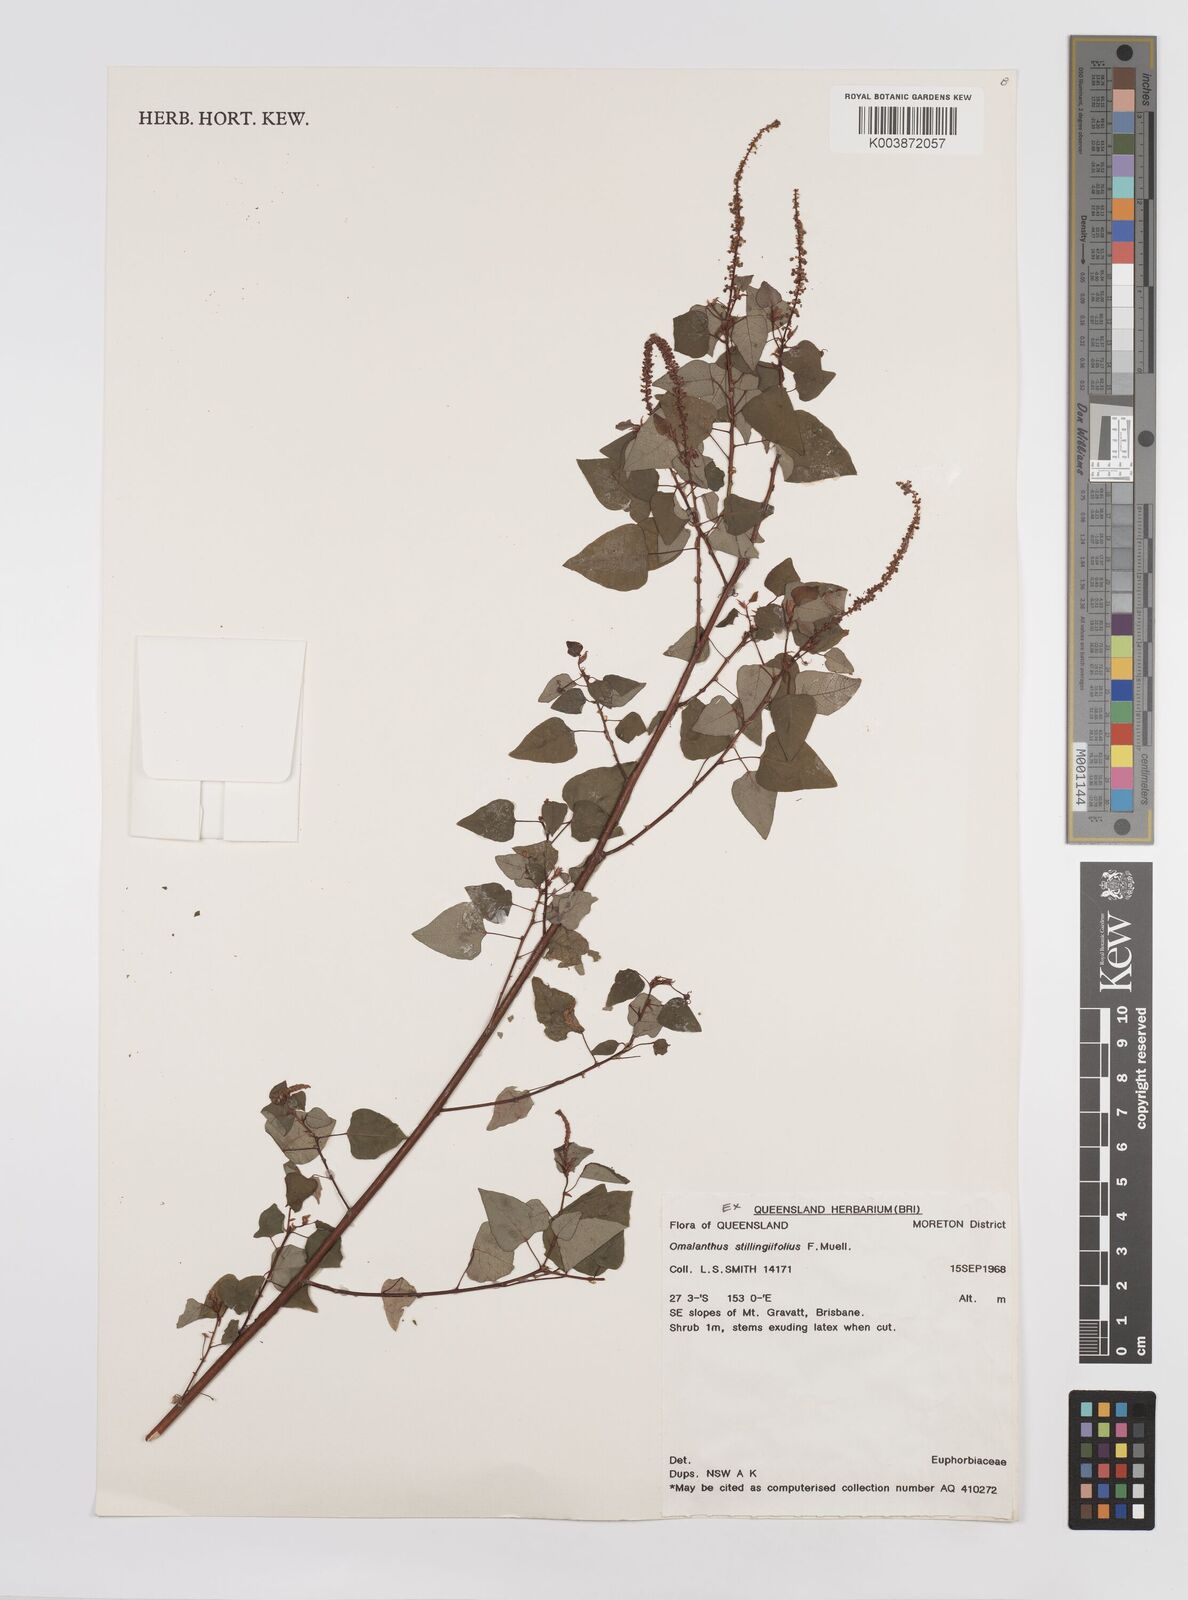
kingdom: Plantae
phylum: Tracheophyta
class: Magnoliopsida
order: Malpighiales
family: Euphorbiaceae
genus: Homalanthus
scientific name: Homalanthus stillingifolius
